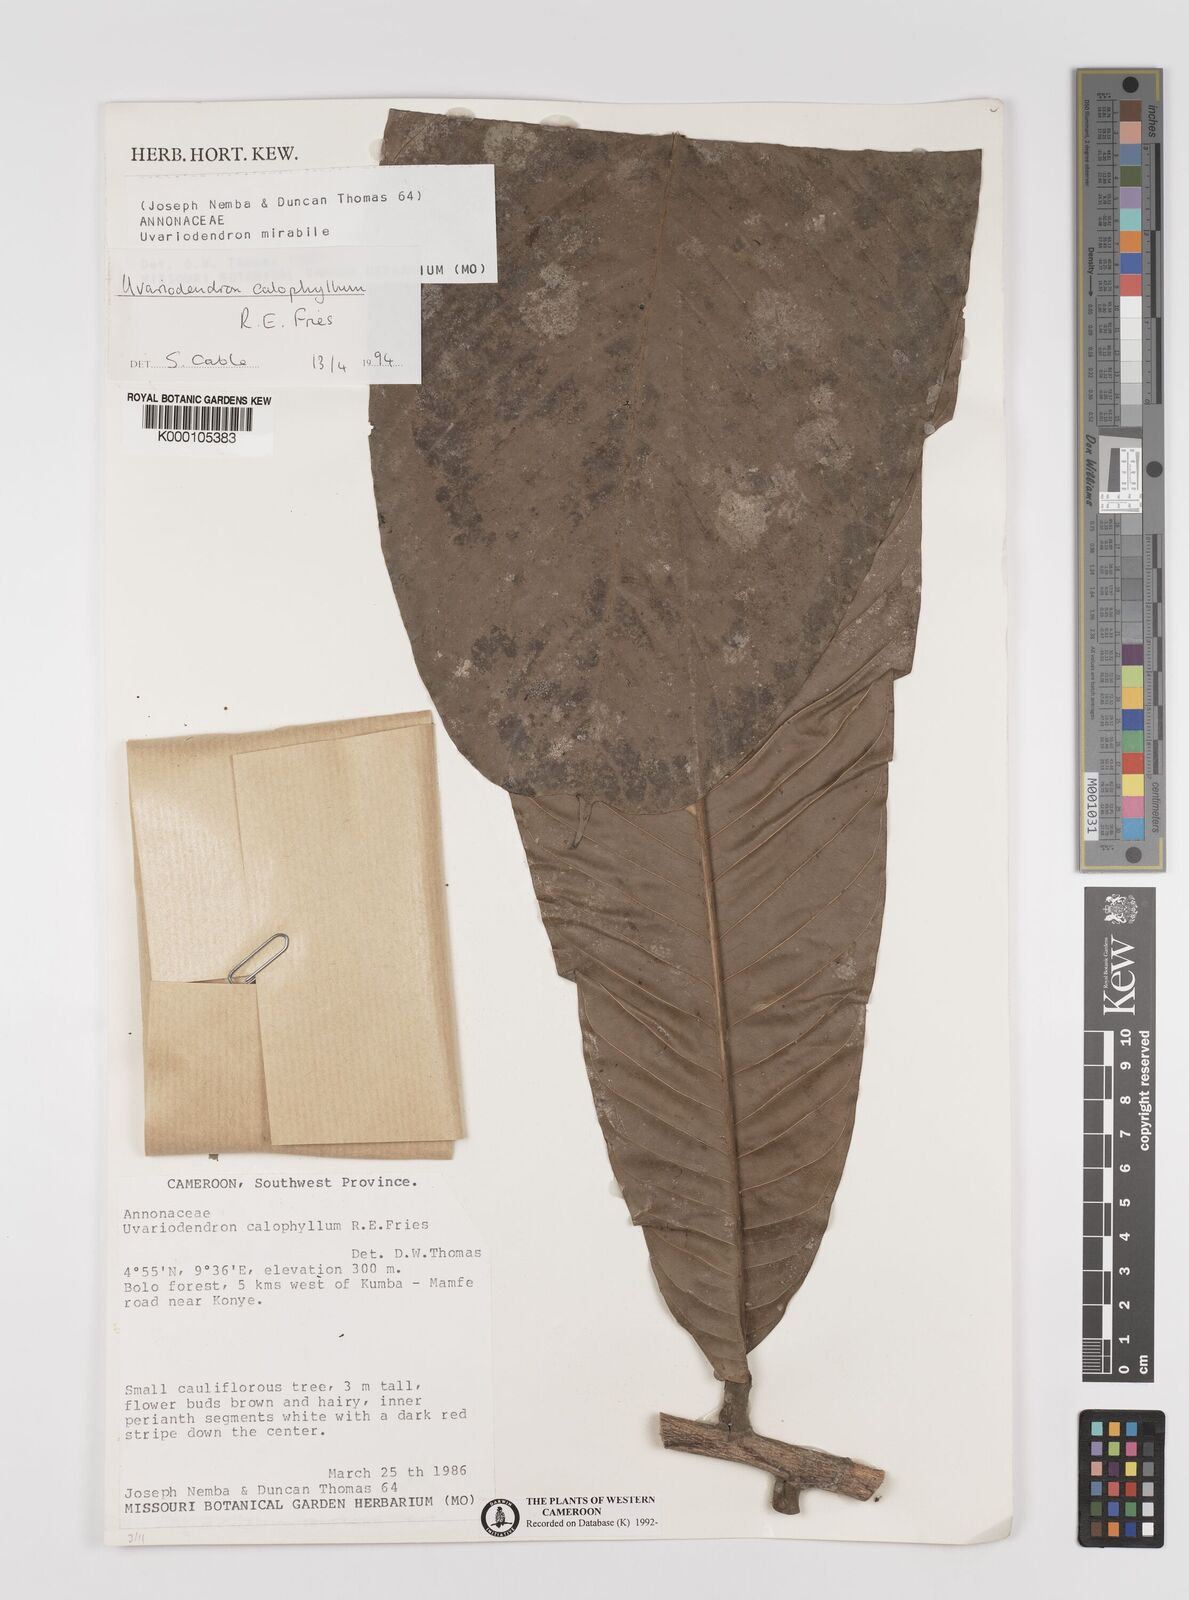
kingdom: Plantae
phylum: Tracheophyta
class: Magnoliopsida
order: Magnoliales
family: Annonaceae
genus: Uvariodendron
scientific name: Uvariodendron calophyllum
